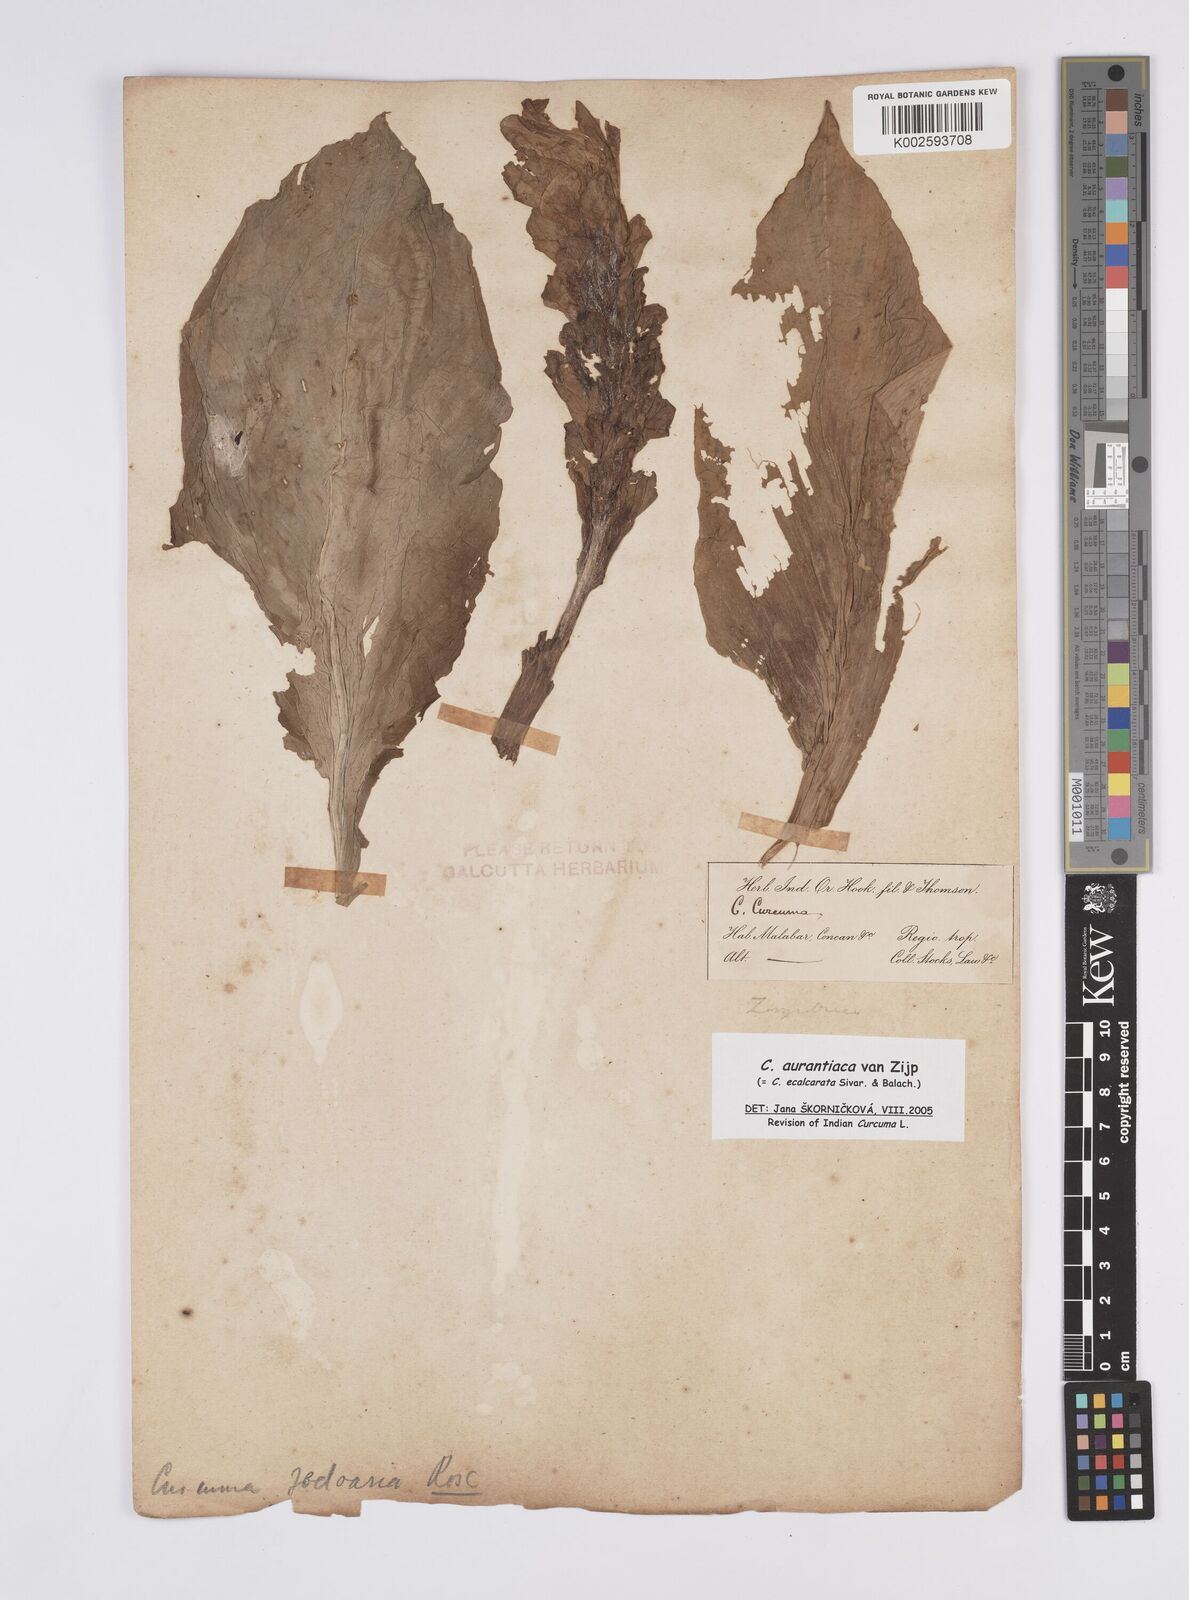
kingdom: Plantae
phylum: Tracheophyta
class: Liliopsida
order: Zingiberales
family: Zingiberaceae
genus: Curcuma
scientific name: Curcuma aurantiaca
